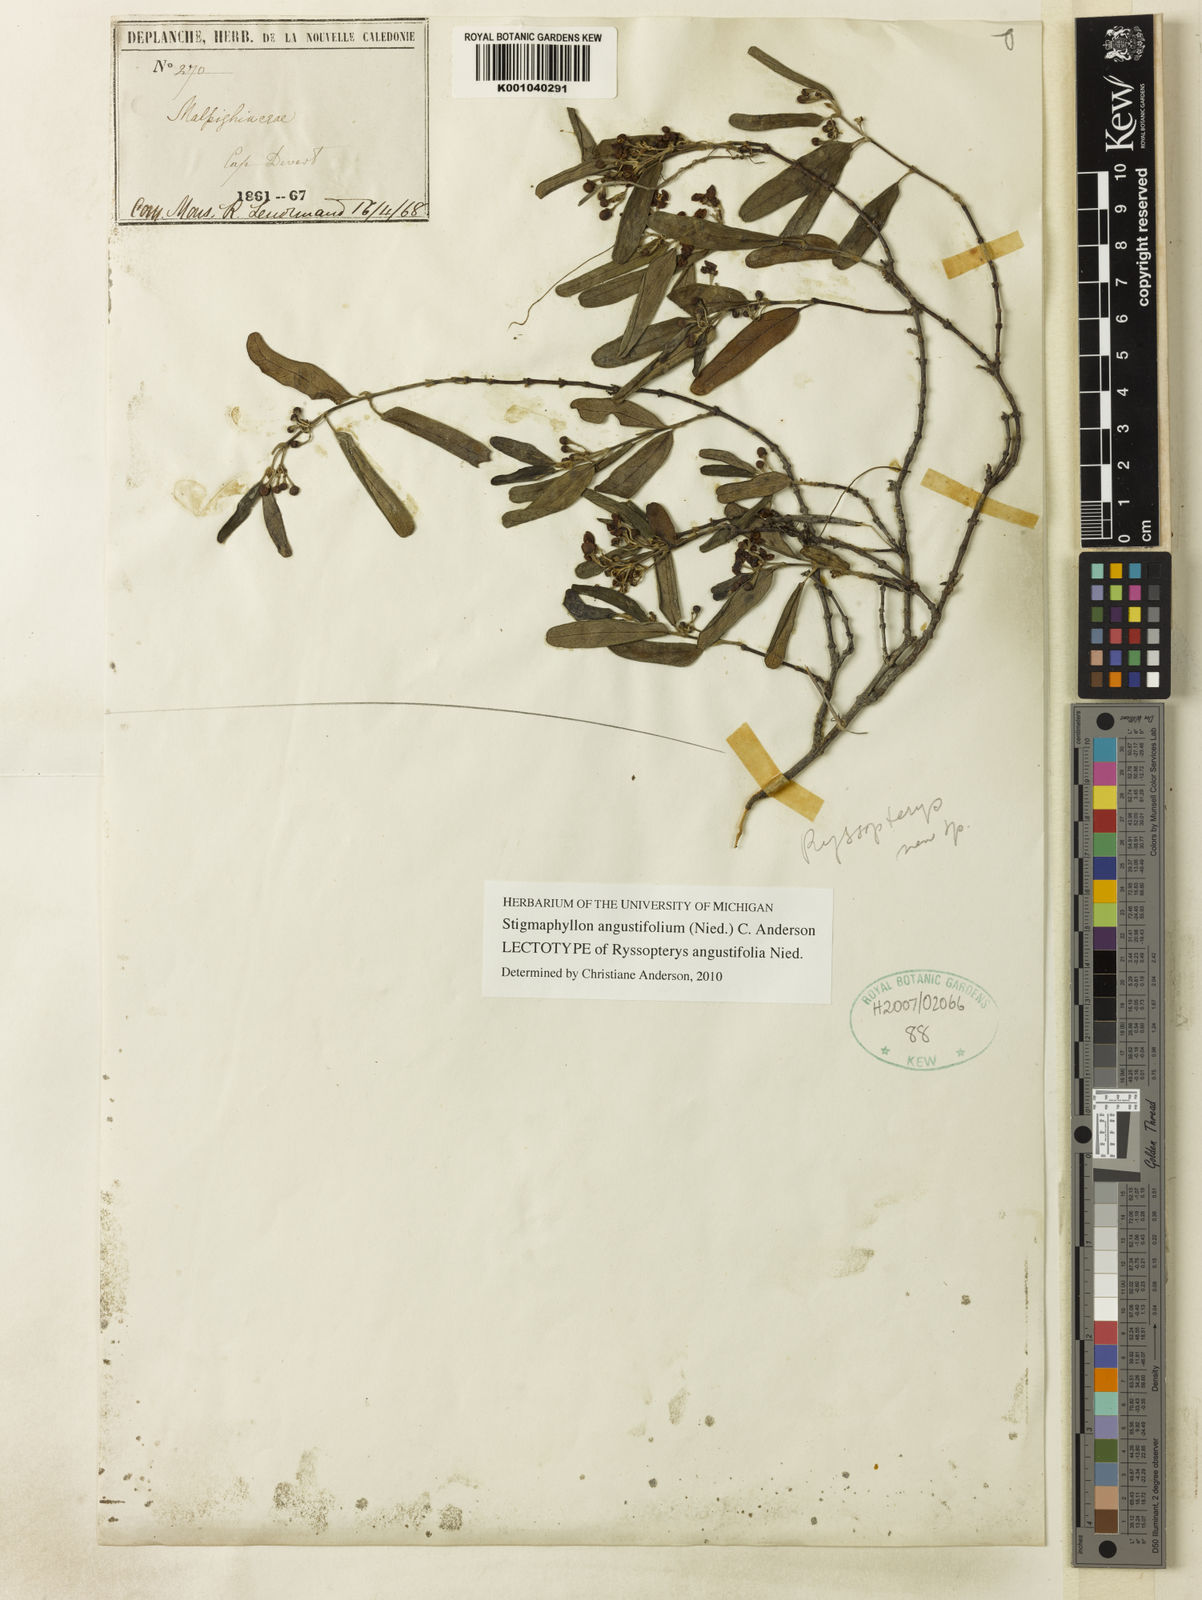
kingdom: Plantae
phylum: Tracheophyta
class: Magnoliopsida
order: Malpighiales
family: Malpighiaceae
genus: Stigmaphyllon
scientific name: Stigmaphyllon angustifolium
